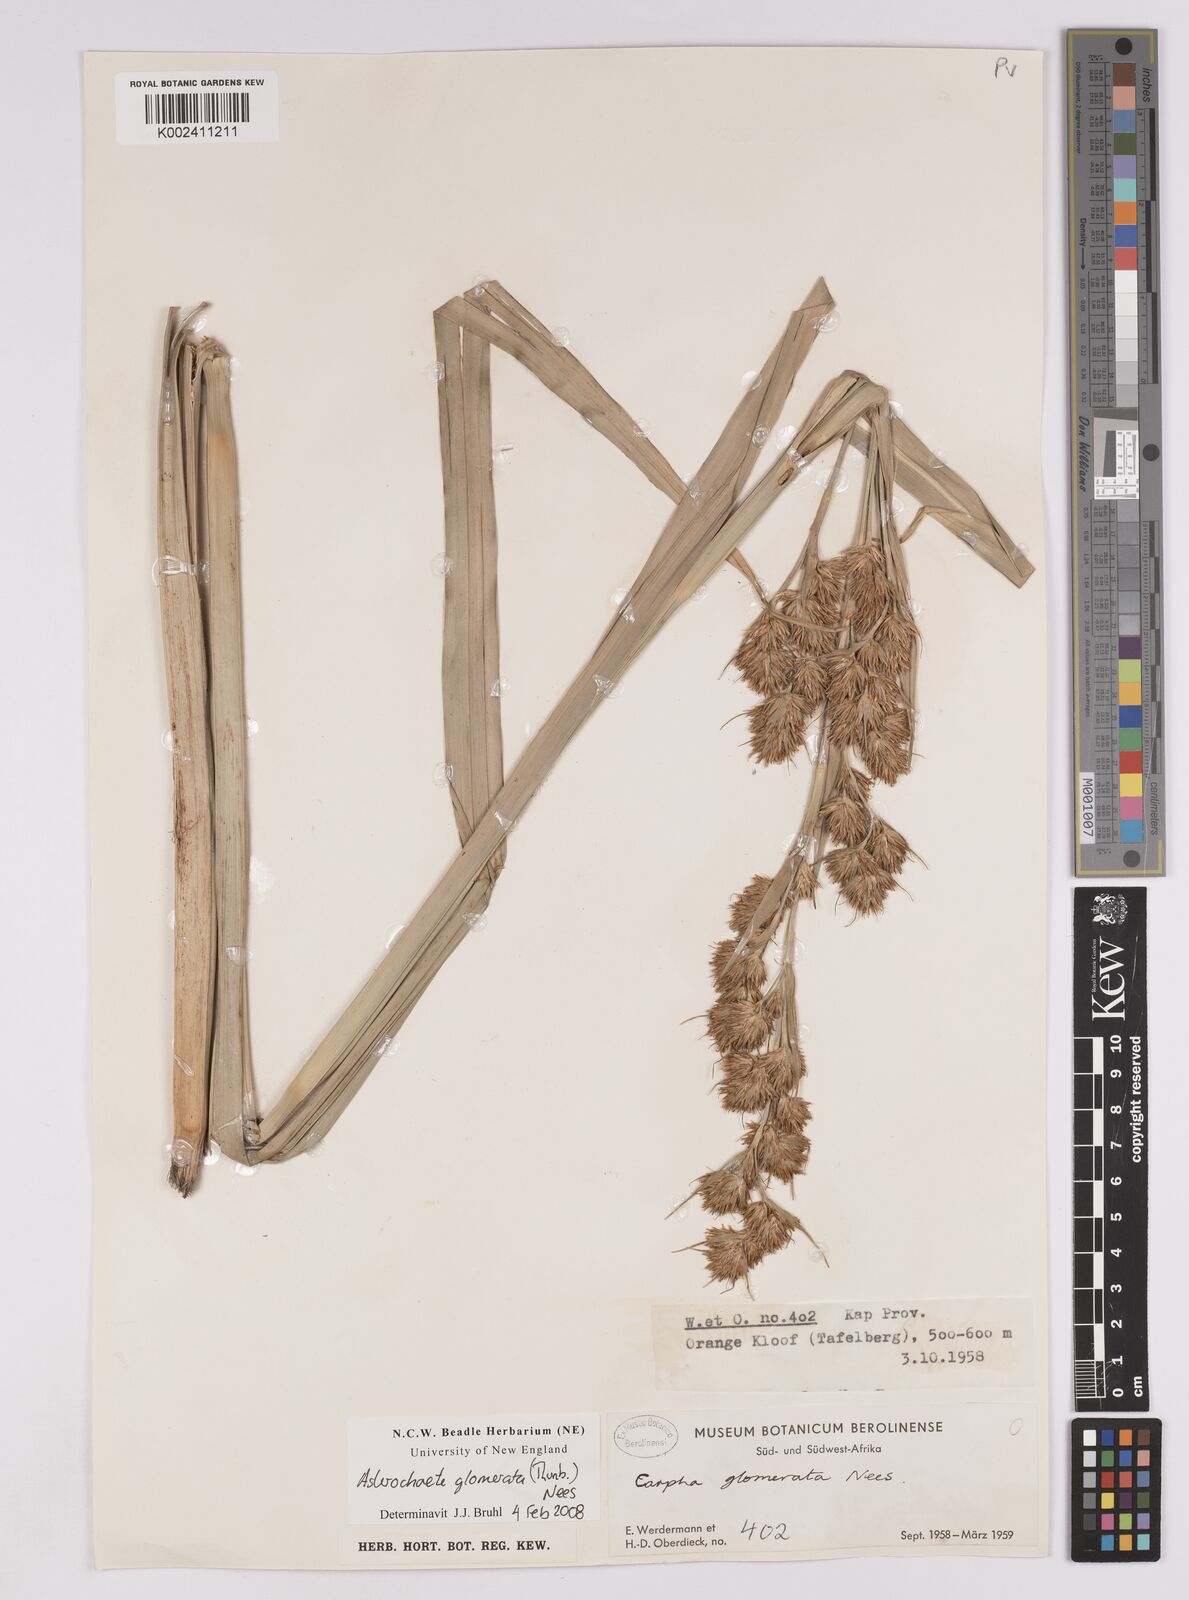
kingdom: Plantae
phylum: Tracheophyta
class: Liliopsida
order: Poales
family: Cyperaceae
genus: Carpha
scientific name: Carpha glomerata
